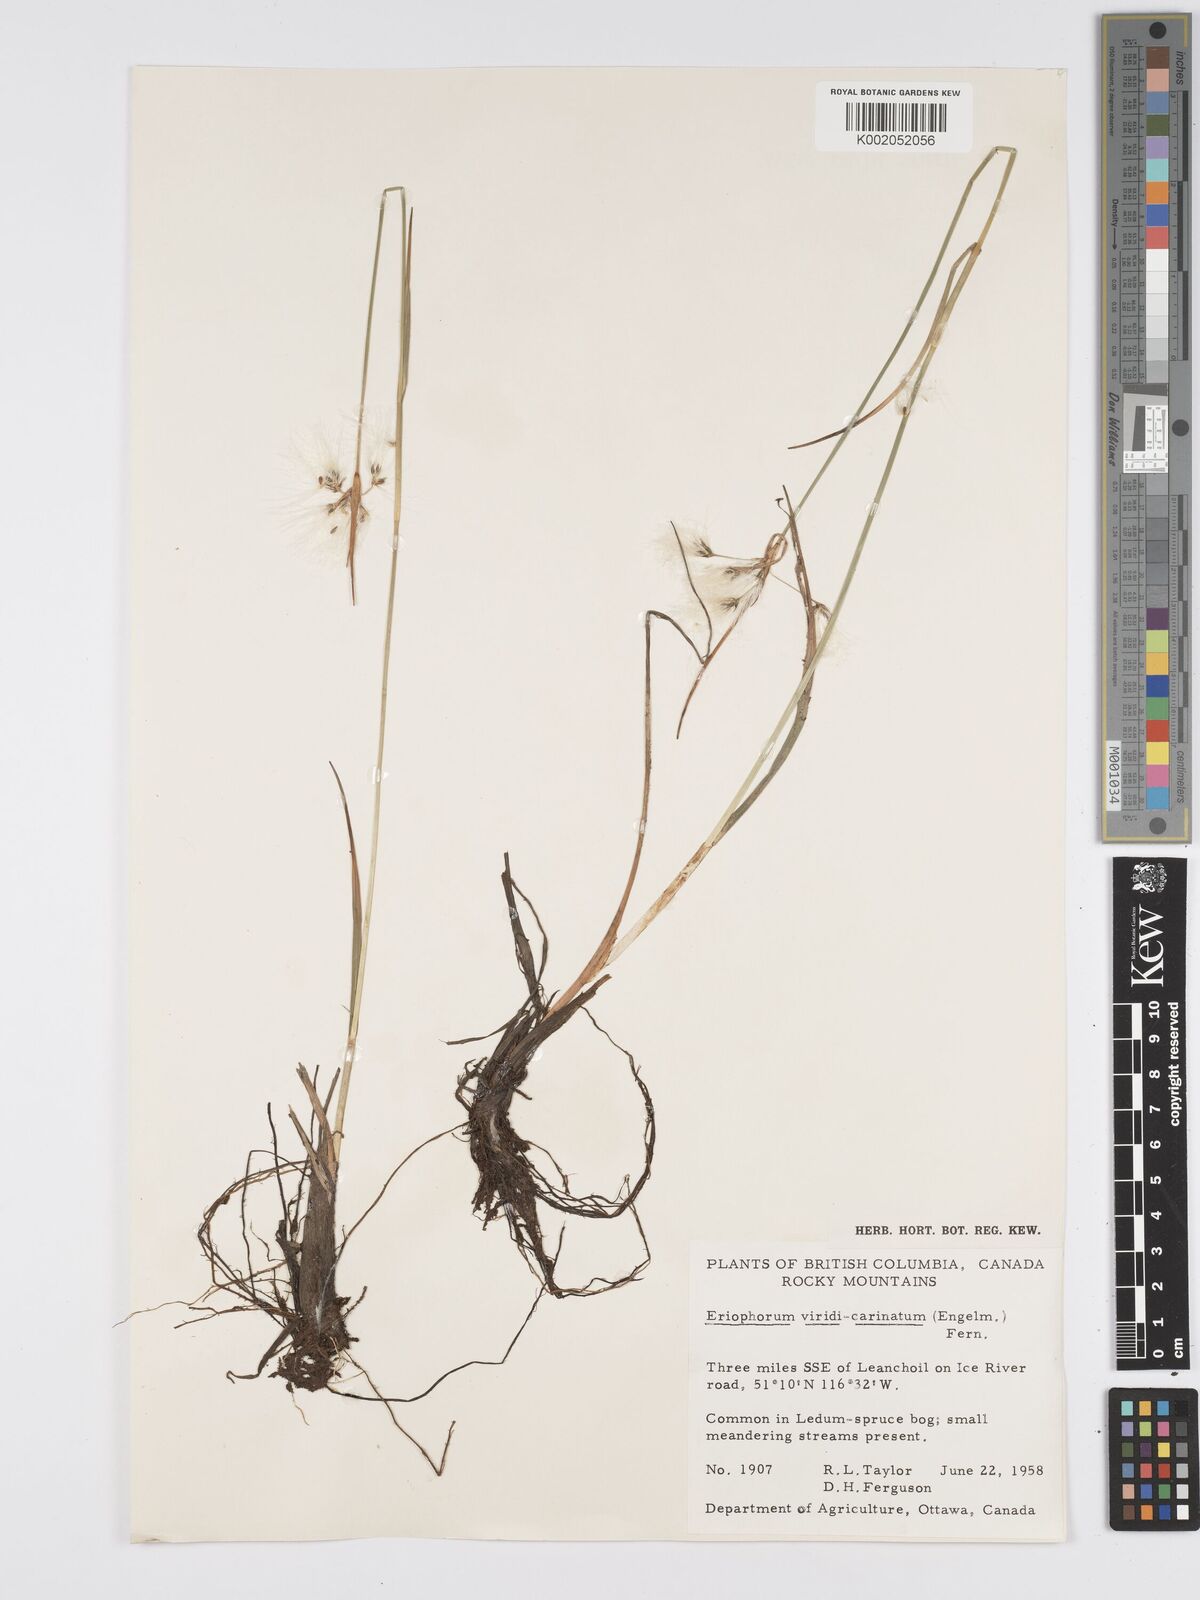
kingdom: Plantae
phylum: Tracheophyta
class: Liliopsida
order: Poales
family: Cyperaceae
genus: Eriophorum
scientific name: Eriophorum viridicarinatum
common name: Green-keeled cottongrass
